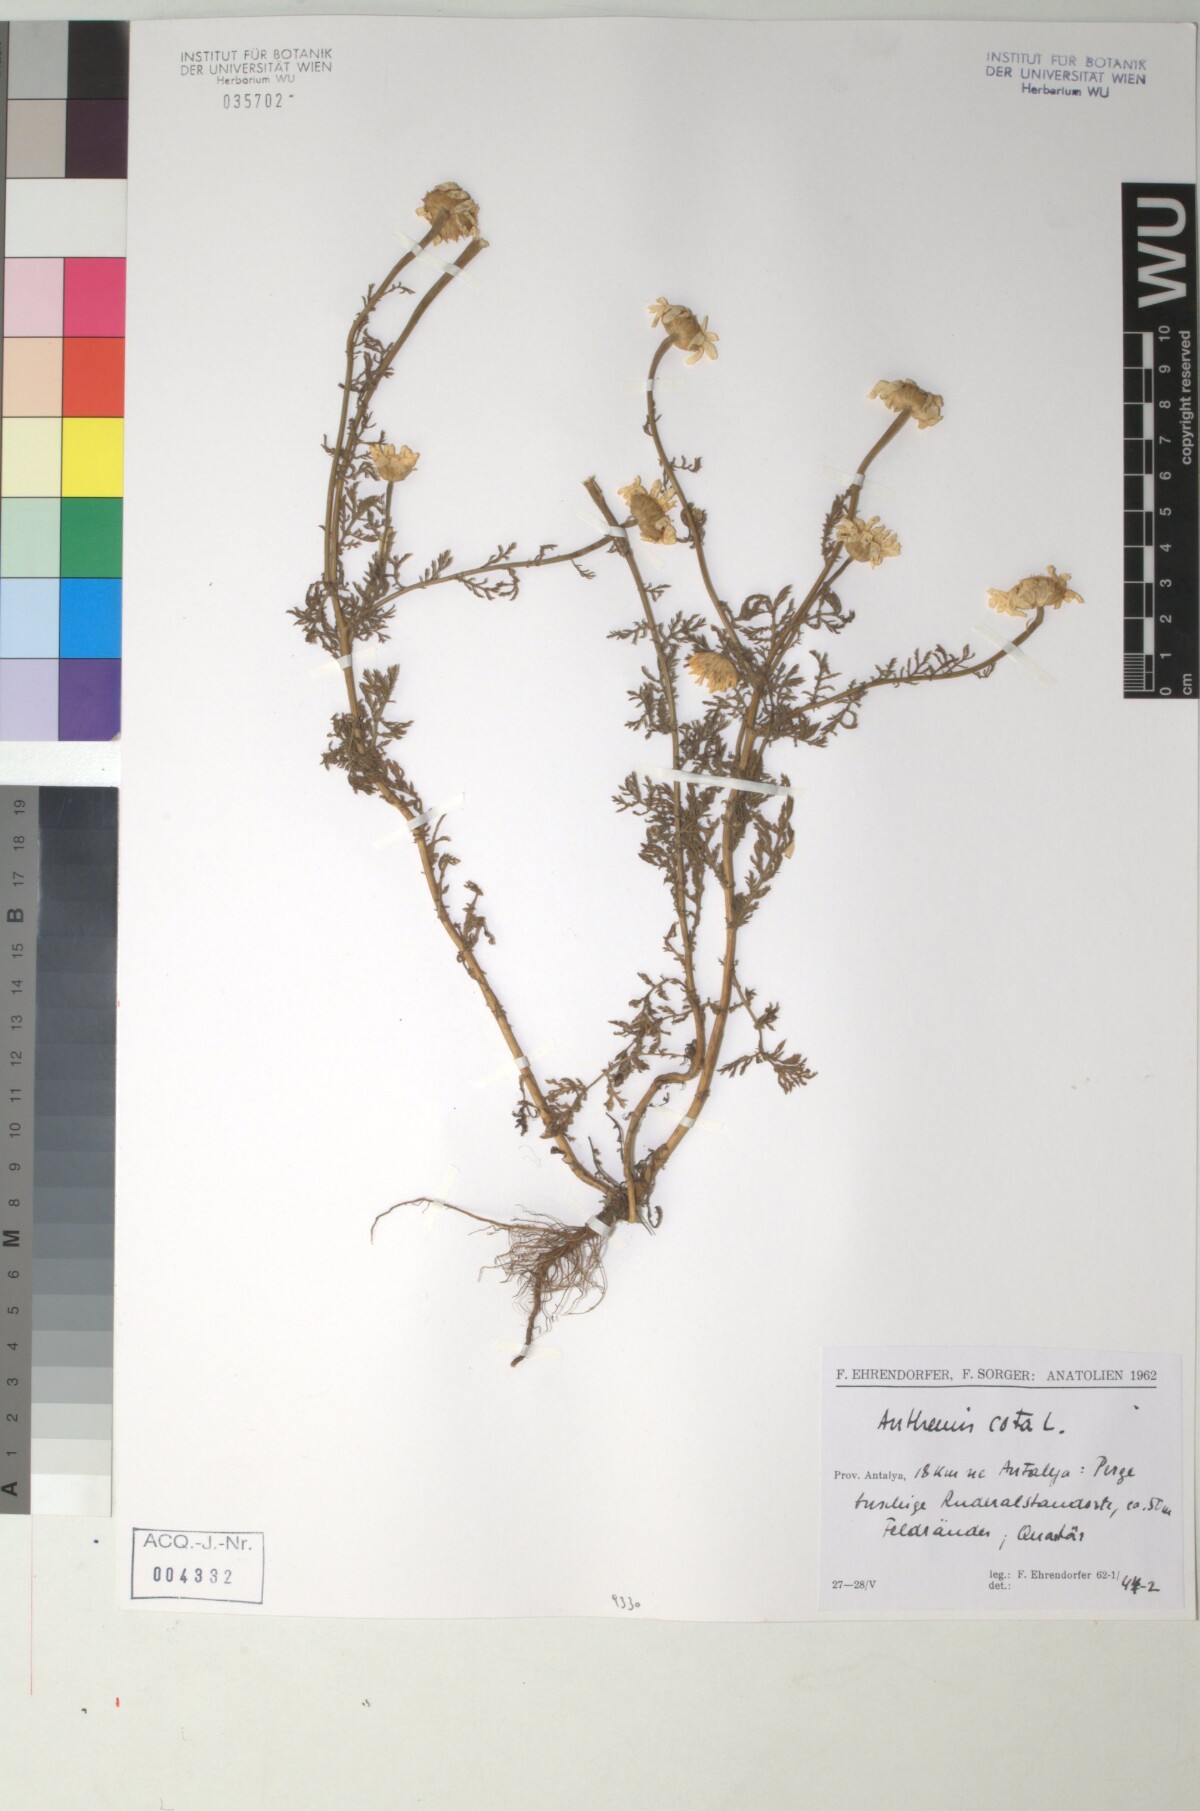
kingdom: Plantae
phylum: Tracheophyta
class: Magnoliopsida
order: Asterales
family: Asteraceae
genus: Cota
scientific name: Cota altissima
